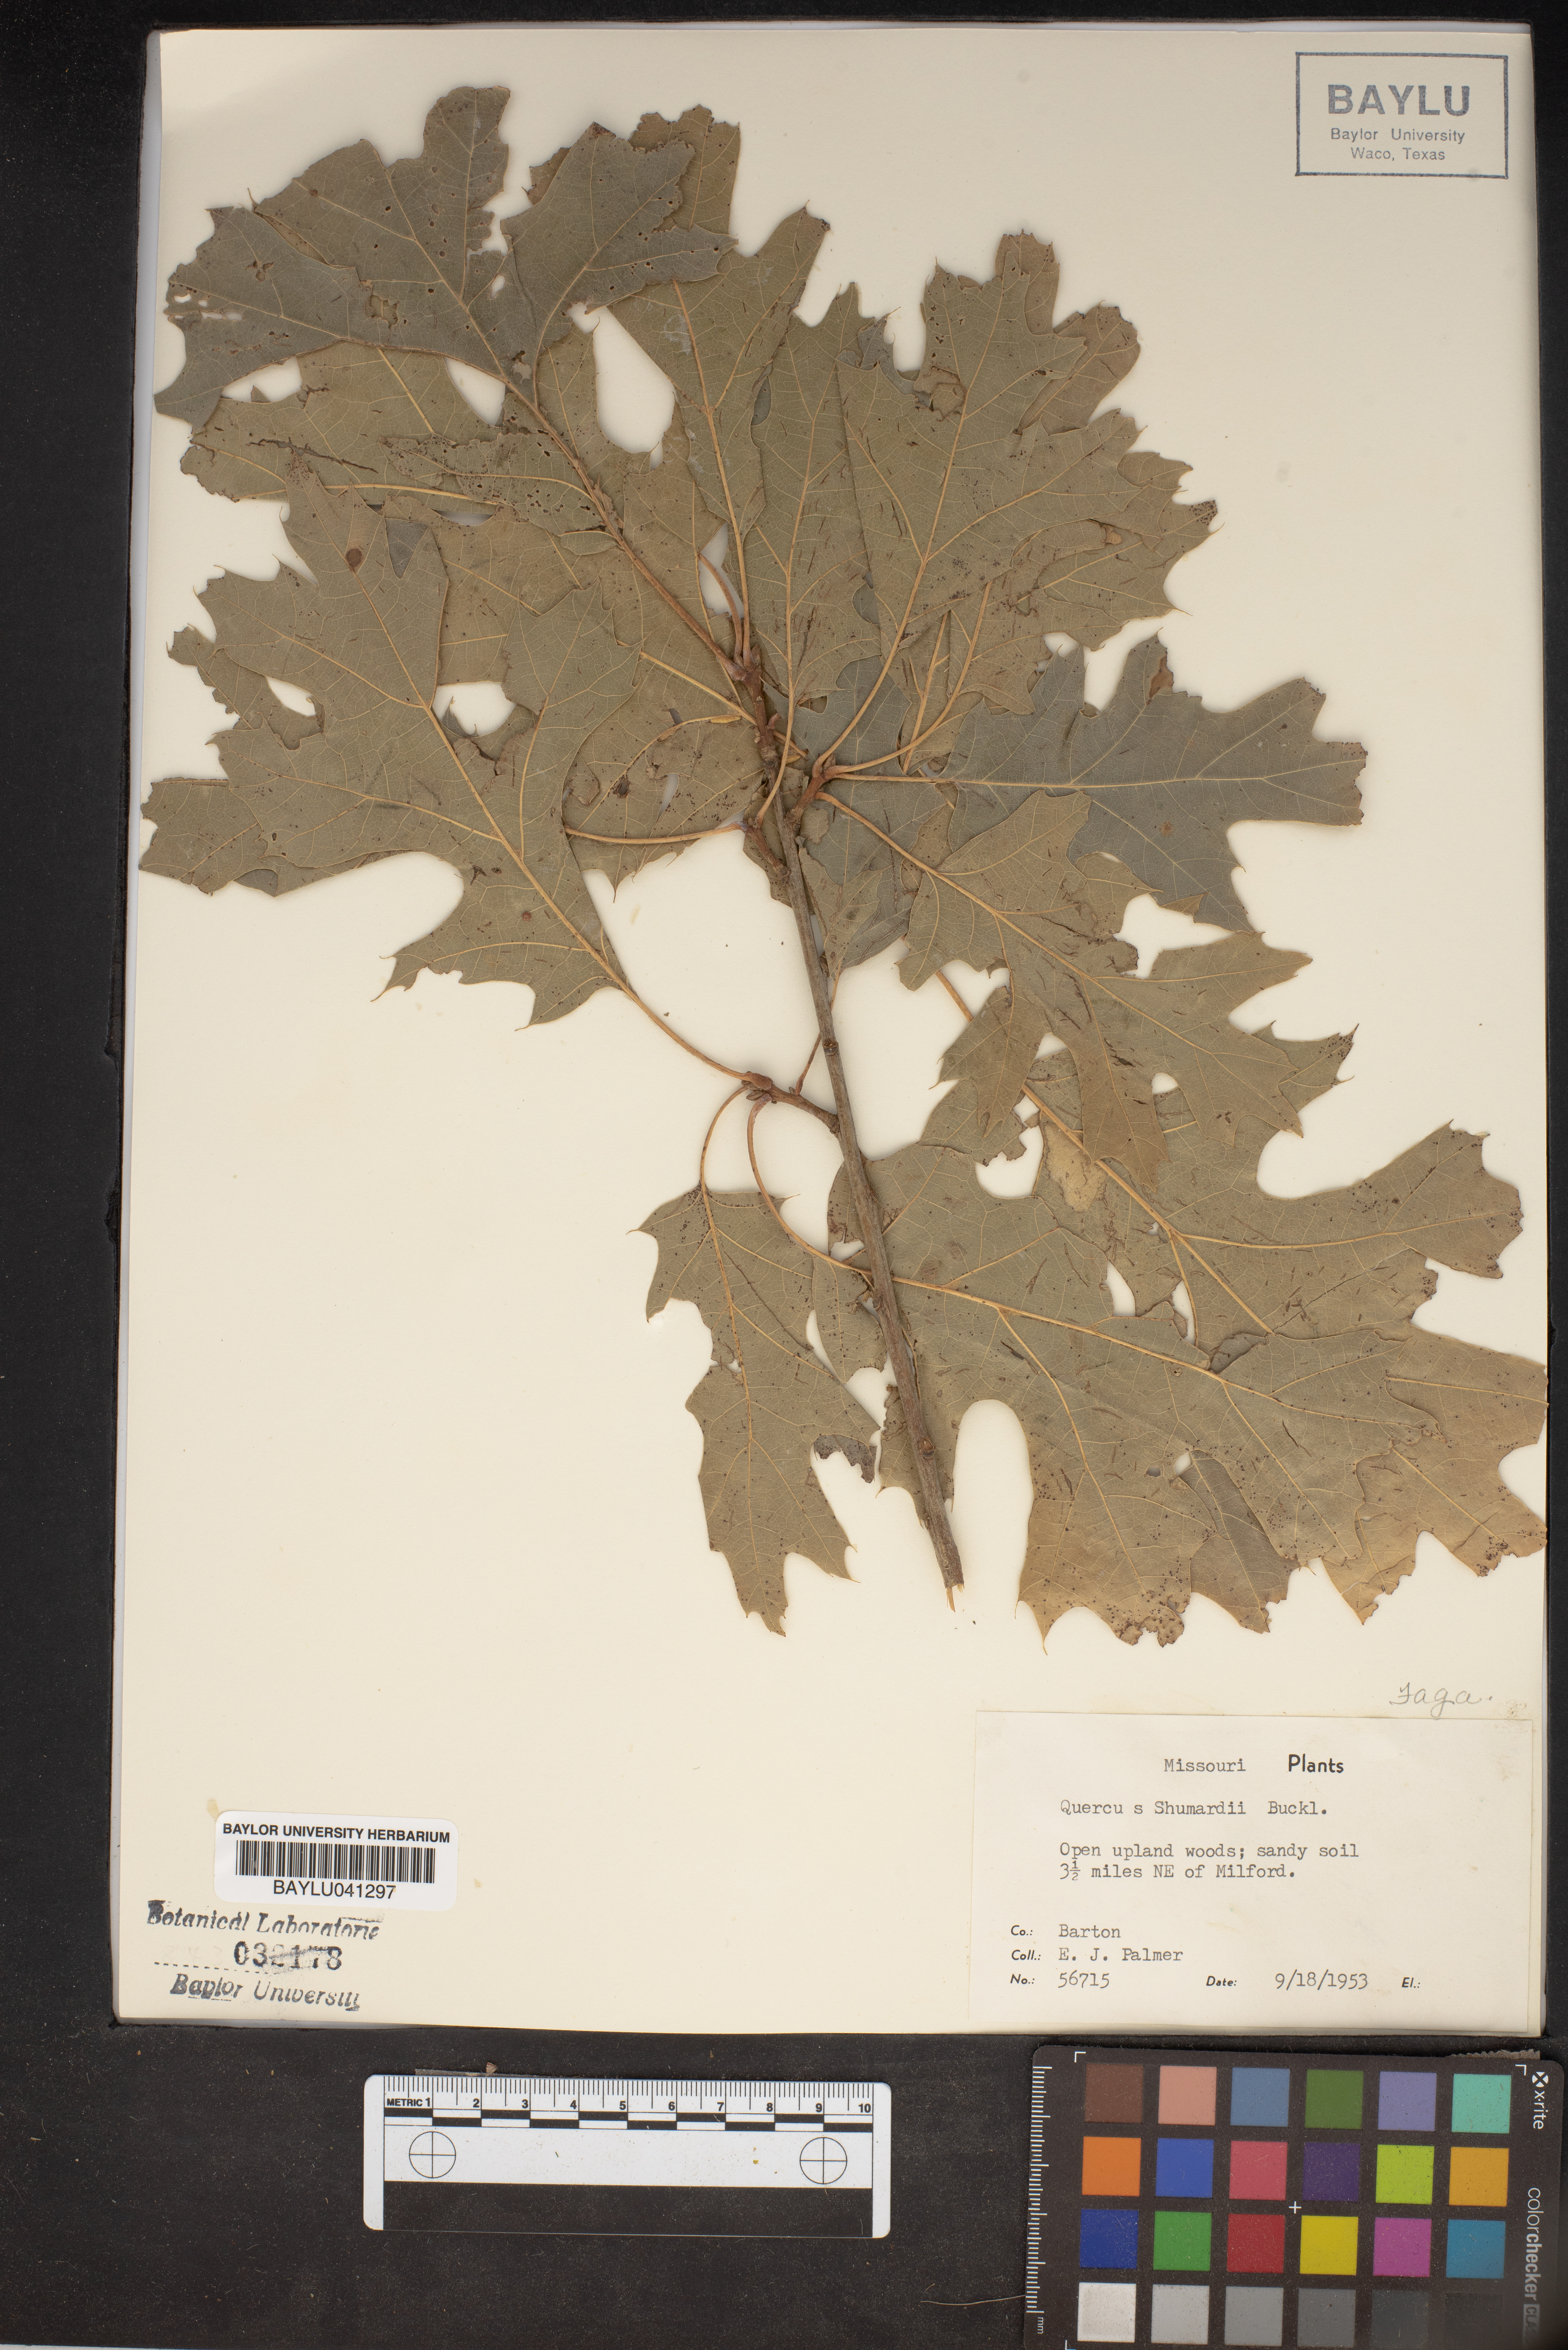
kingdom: Plantae
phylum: Tracheophyta
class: Magnoliopsida
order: Fagales
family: Fagaceae
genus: Quercus
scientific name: Quercus shumardii
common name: Shumard oak
